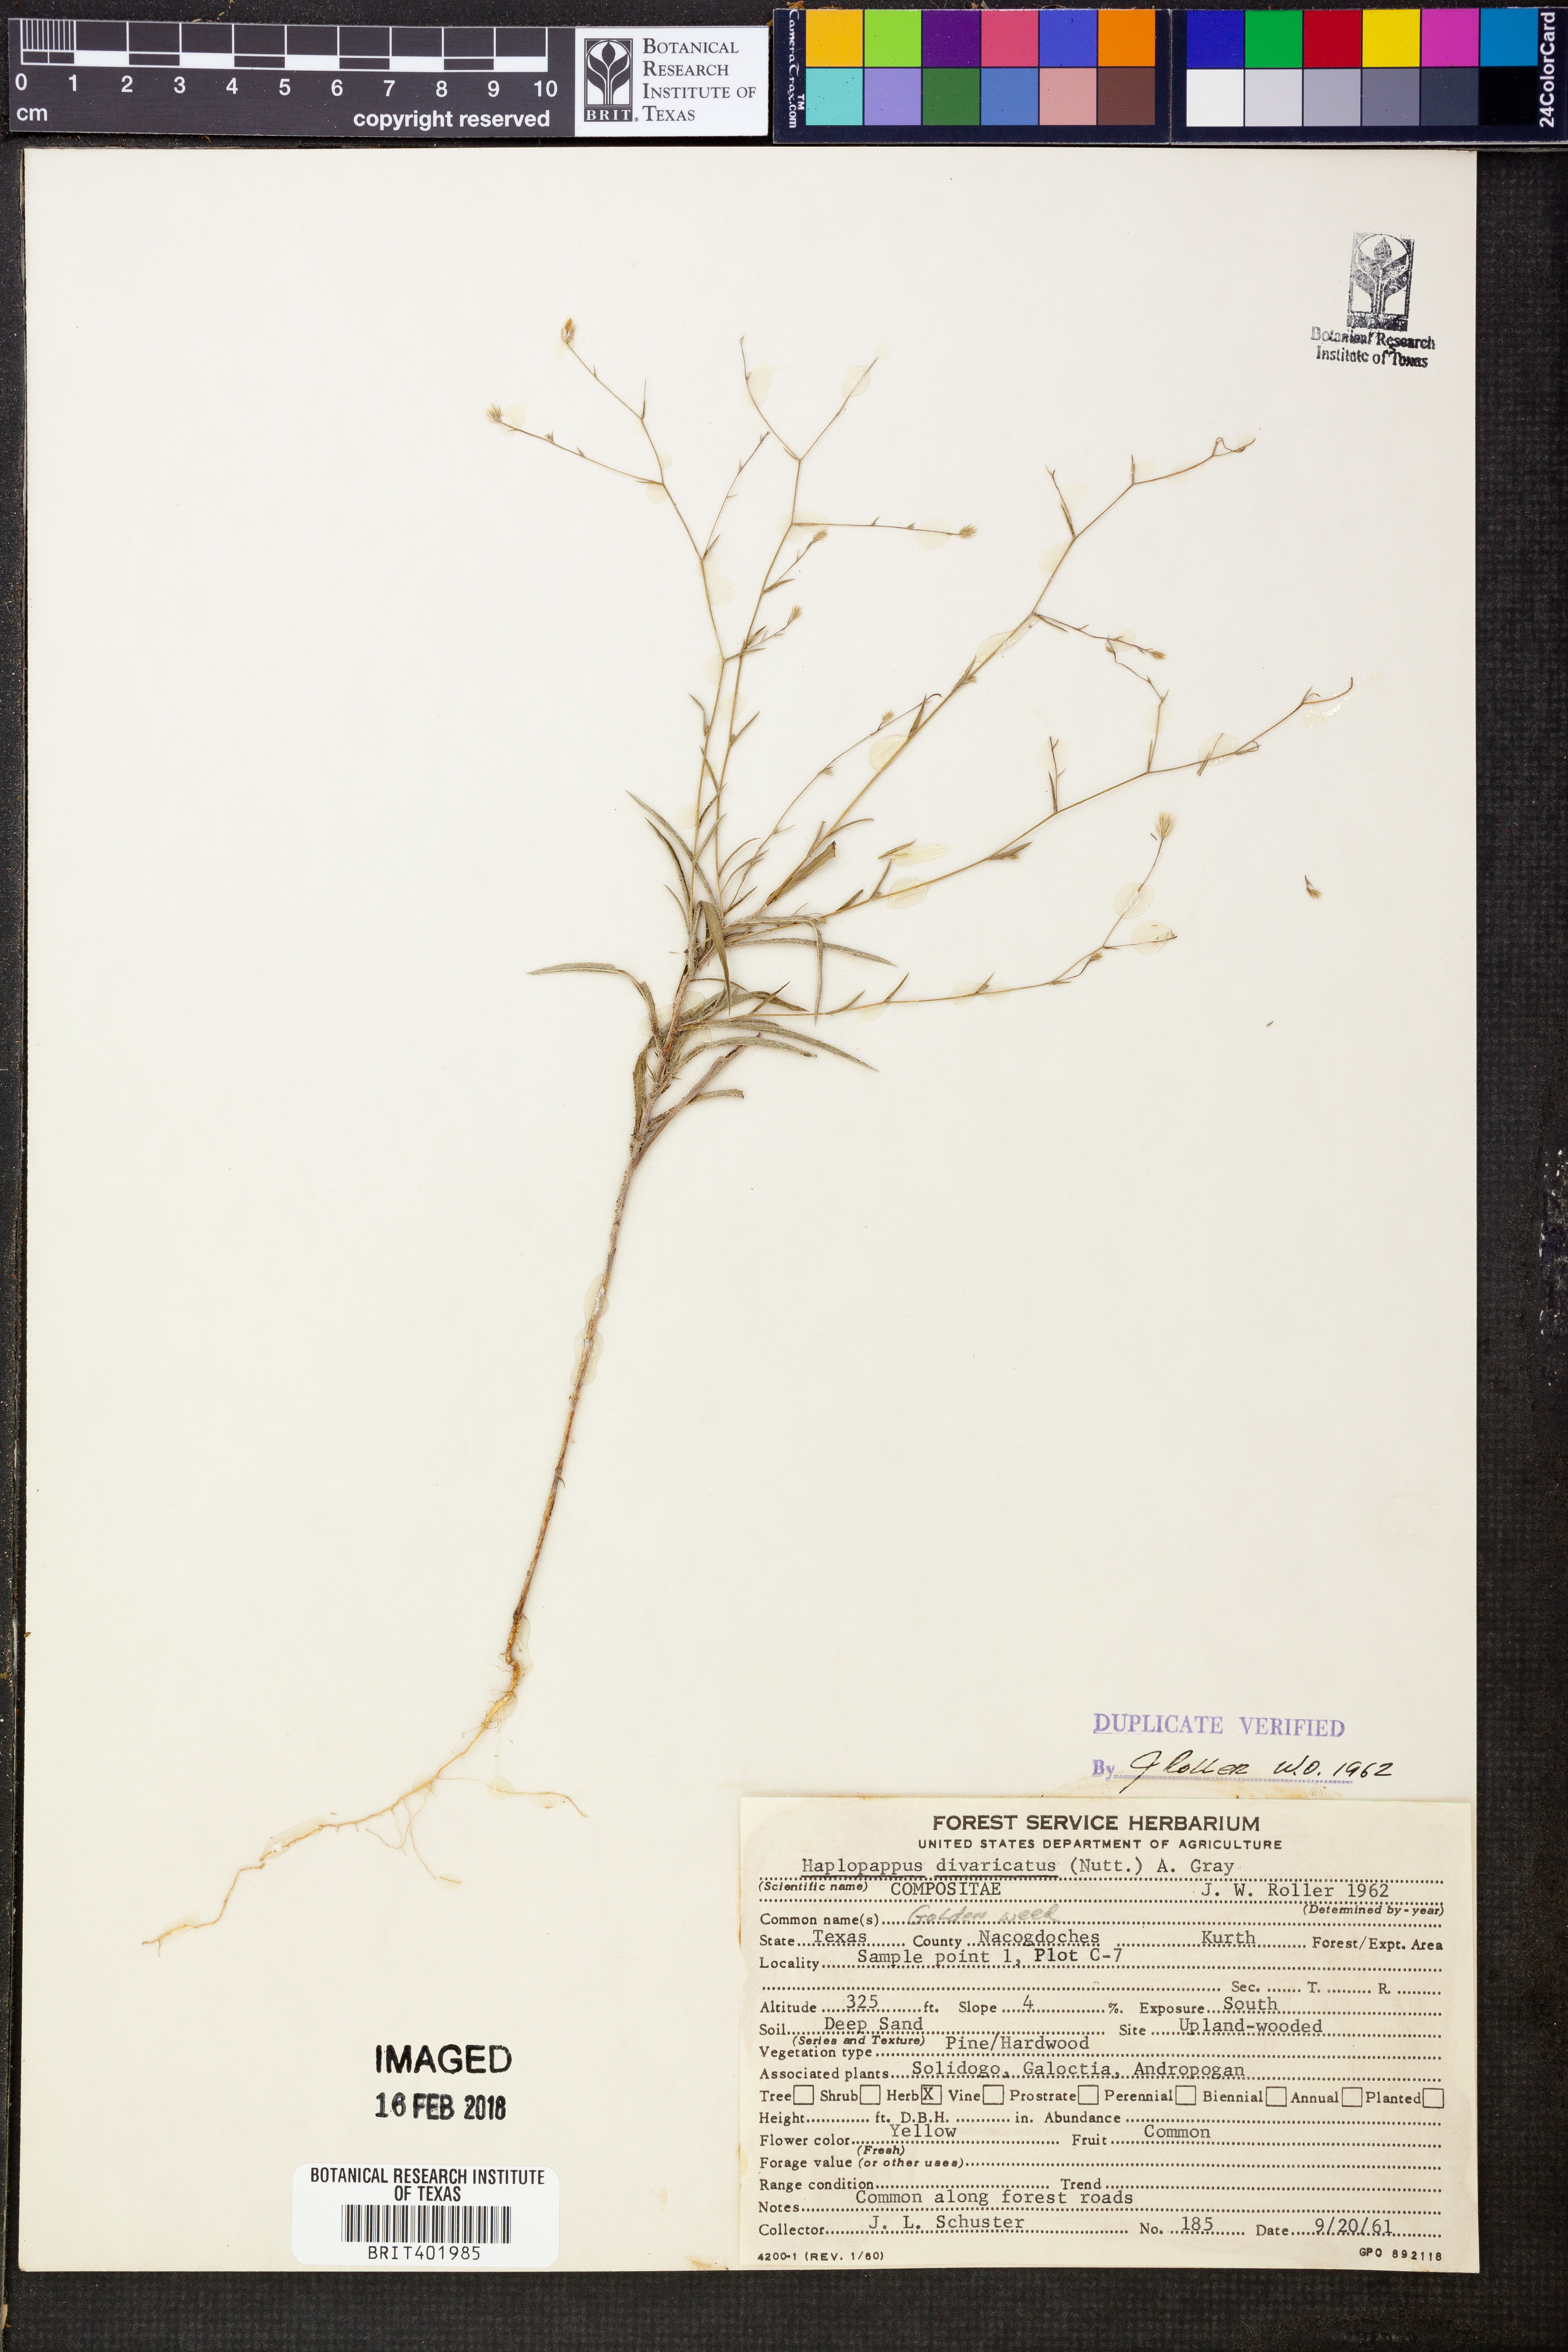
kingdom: Plantae
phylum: Tracheophyta
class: Magnoliopsida
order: Asterales
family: Asteraceae
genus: Croptilon
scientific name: Croptilon divaricatum
